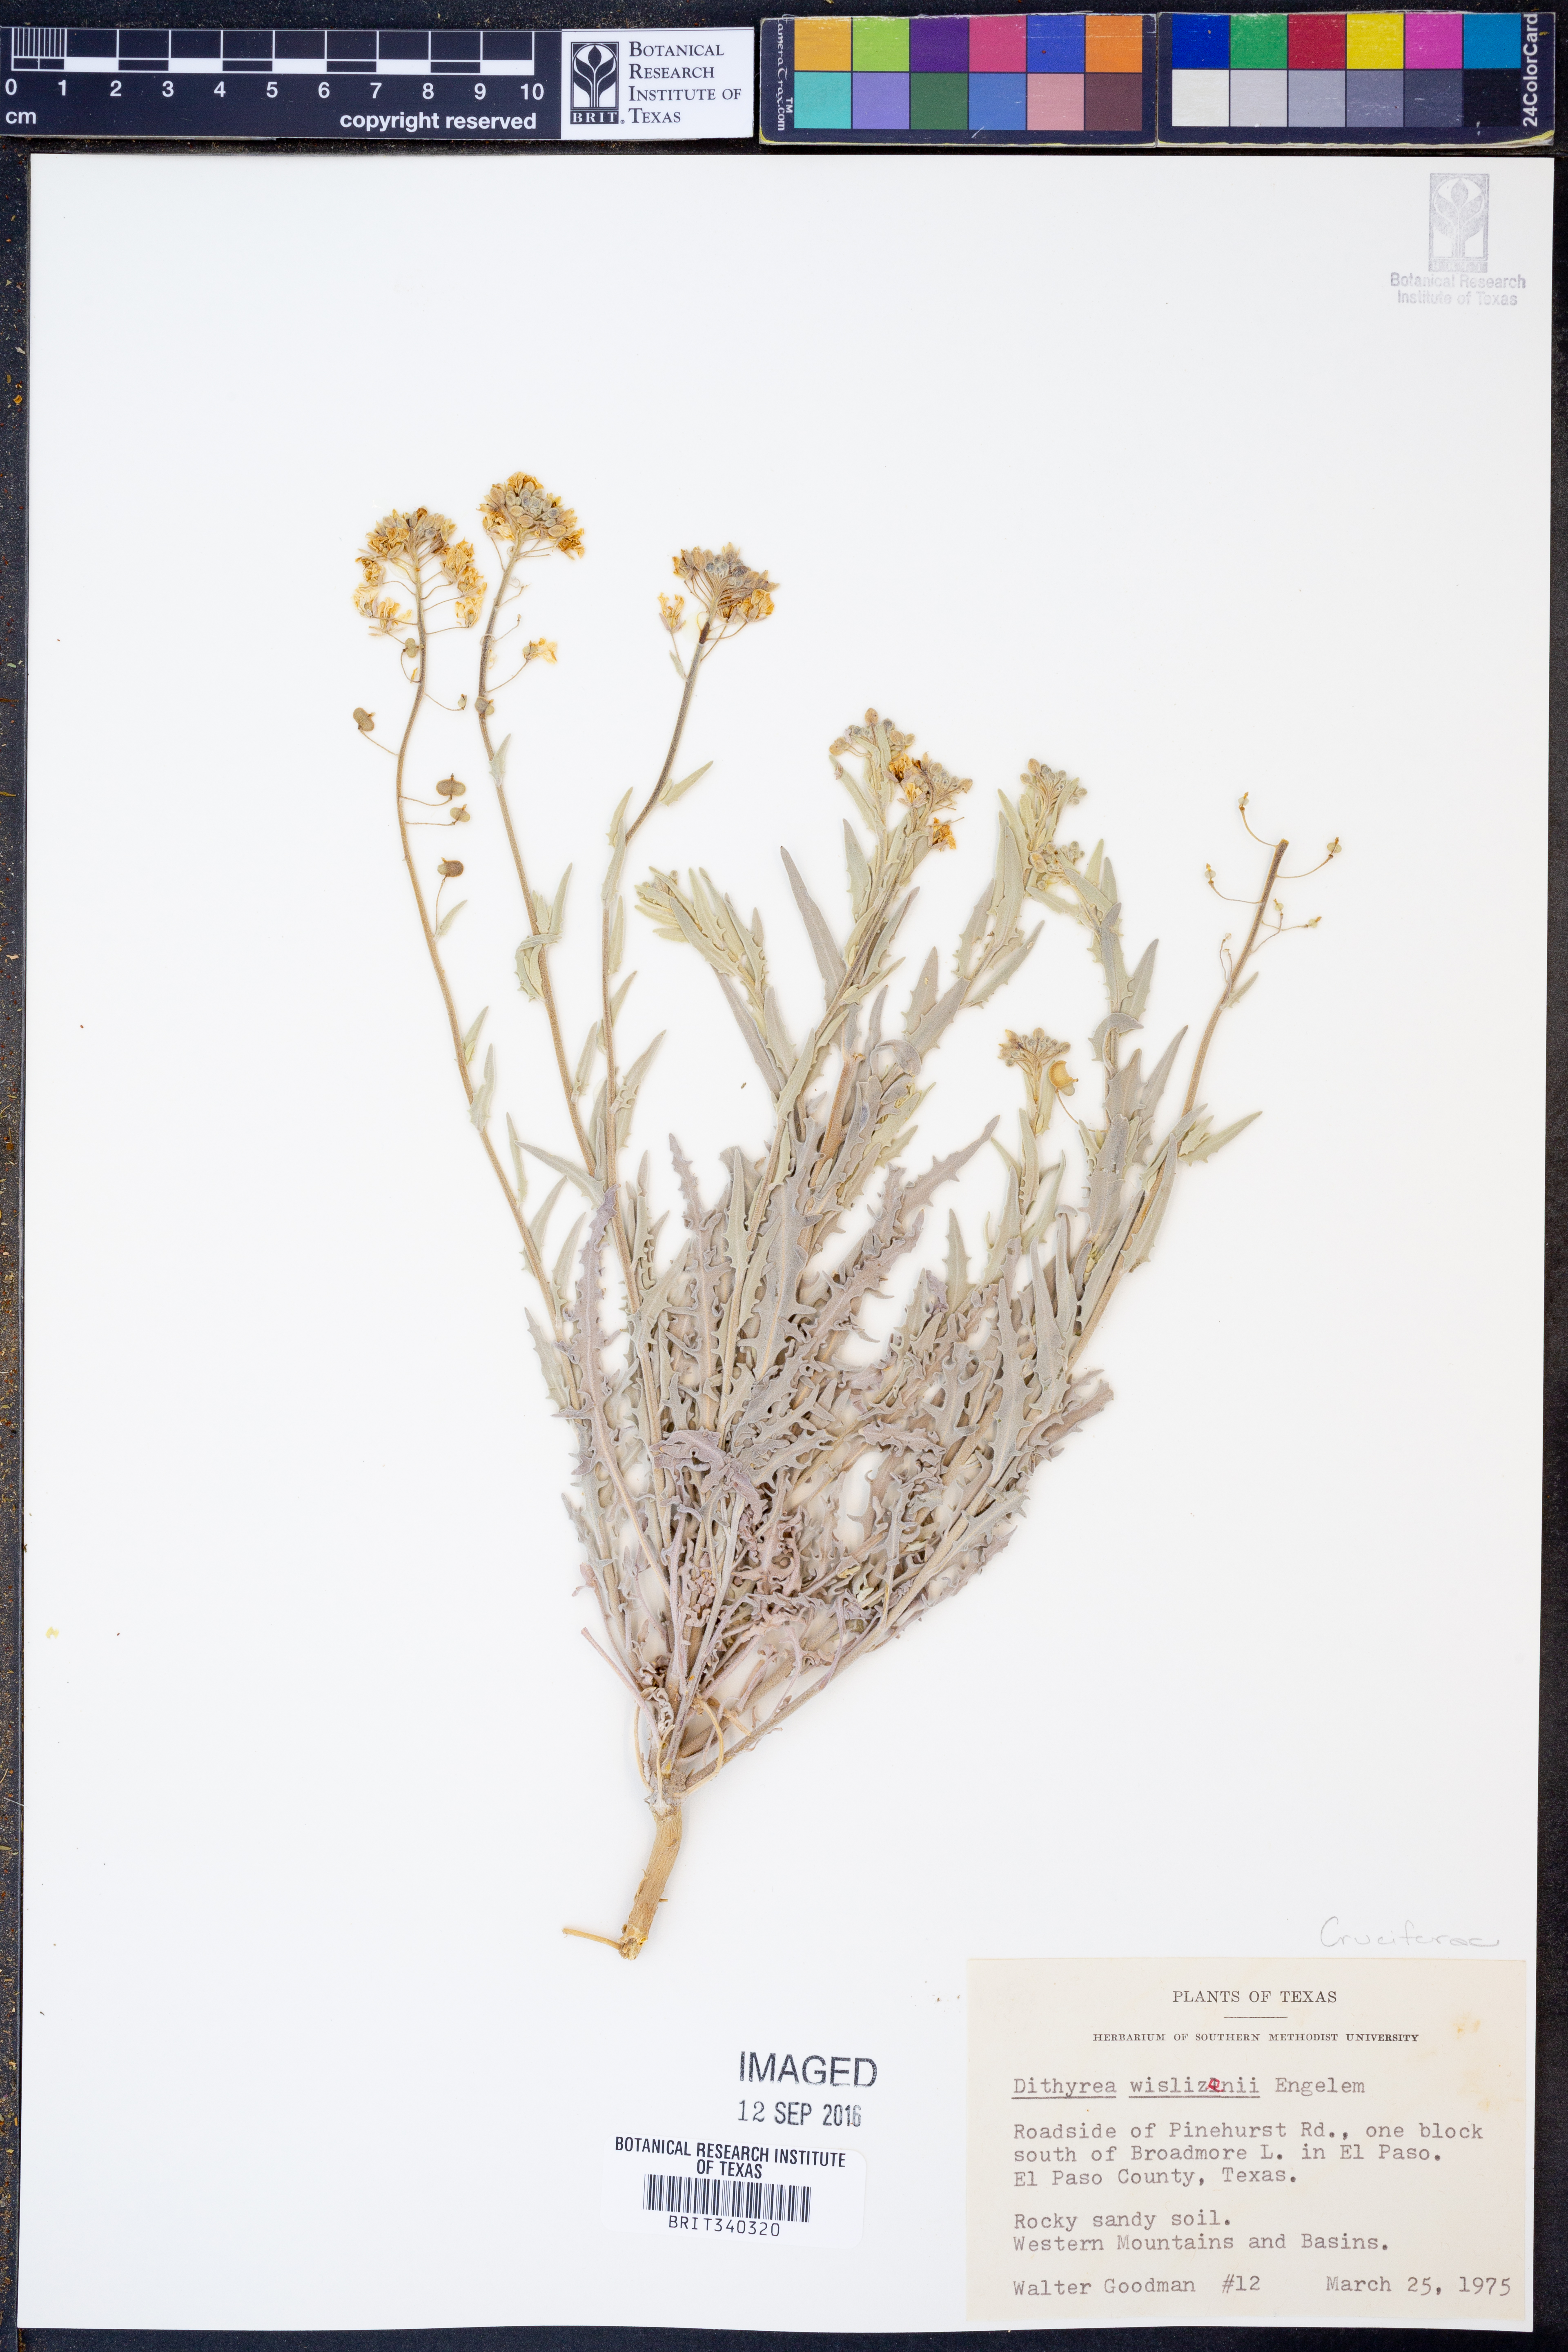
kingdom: Plantae
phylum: Tracheophyta
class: Magnoliopsida
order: Brassicales
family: Brassicaceae
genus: Dimorphocarpa
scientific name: Dimorphocarpa wislizenii
